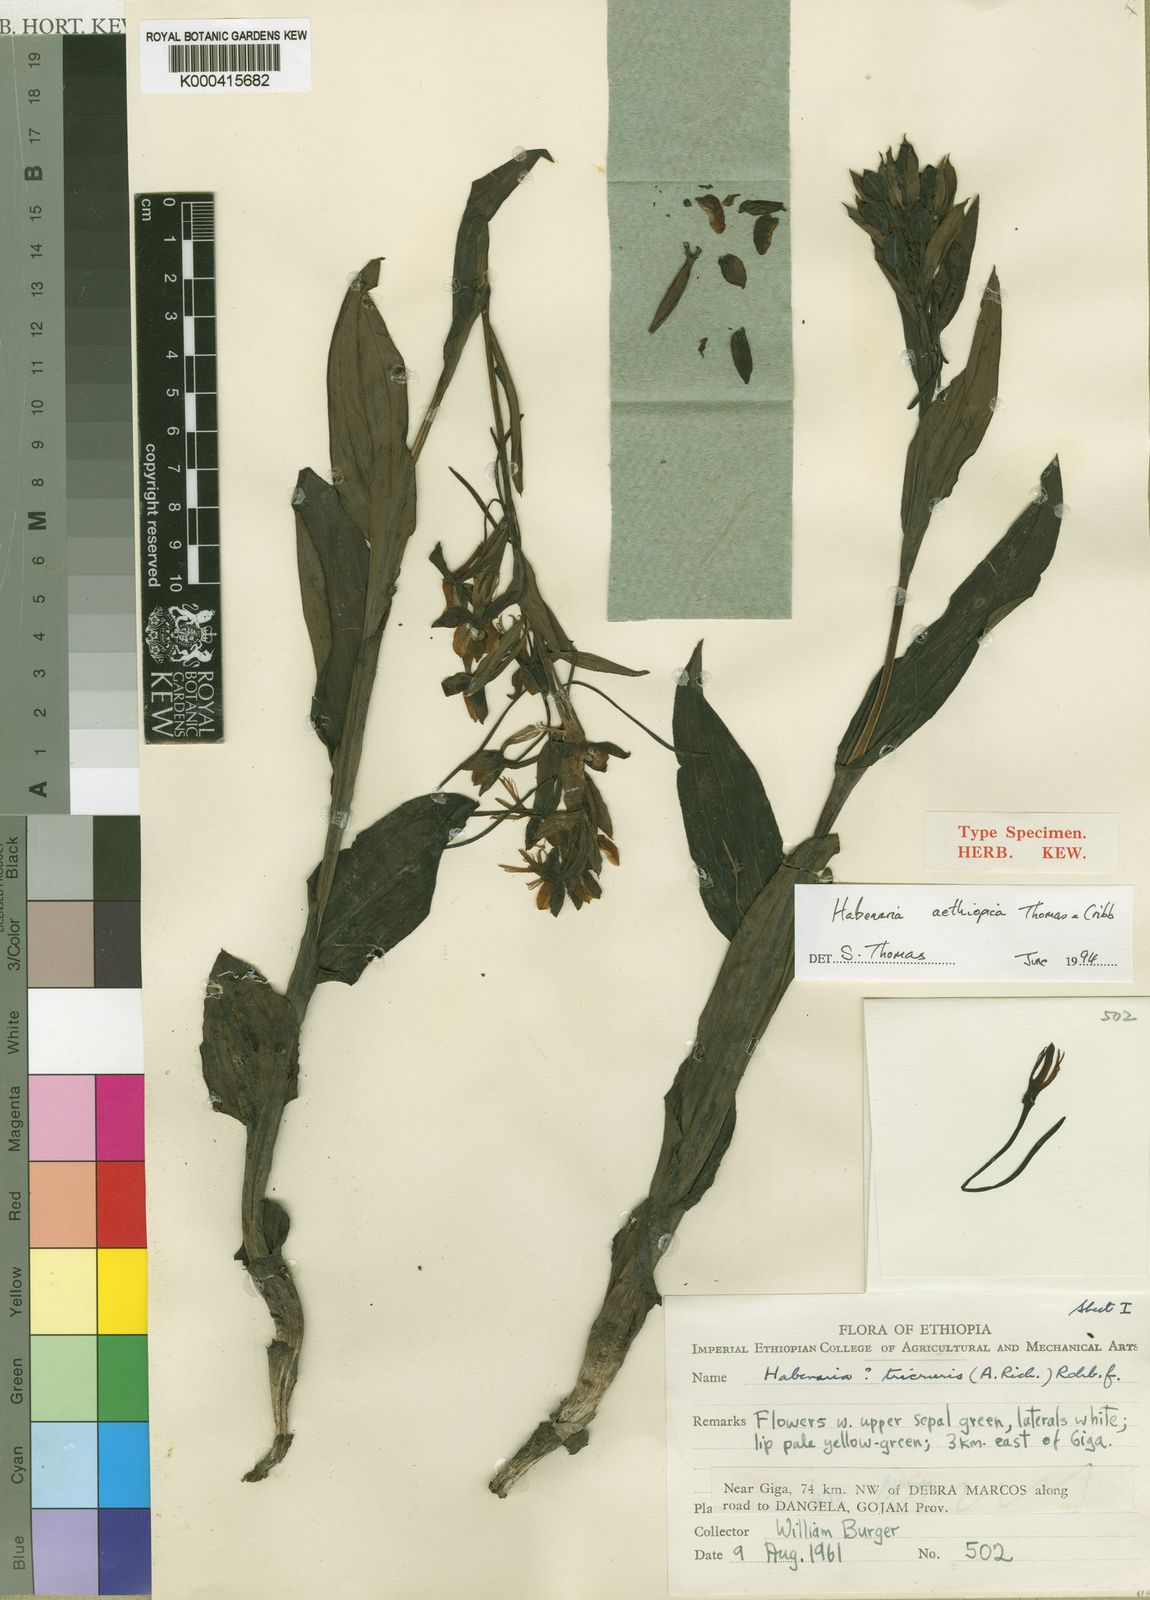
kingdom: Plantae
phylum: Tracheophyta
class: Liliopsida
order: Asparagales
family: Orchidaceae
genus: Habenaria
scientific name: Habenaria aethiopica
